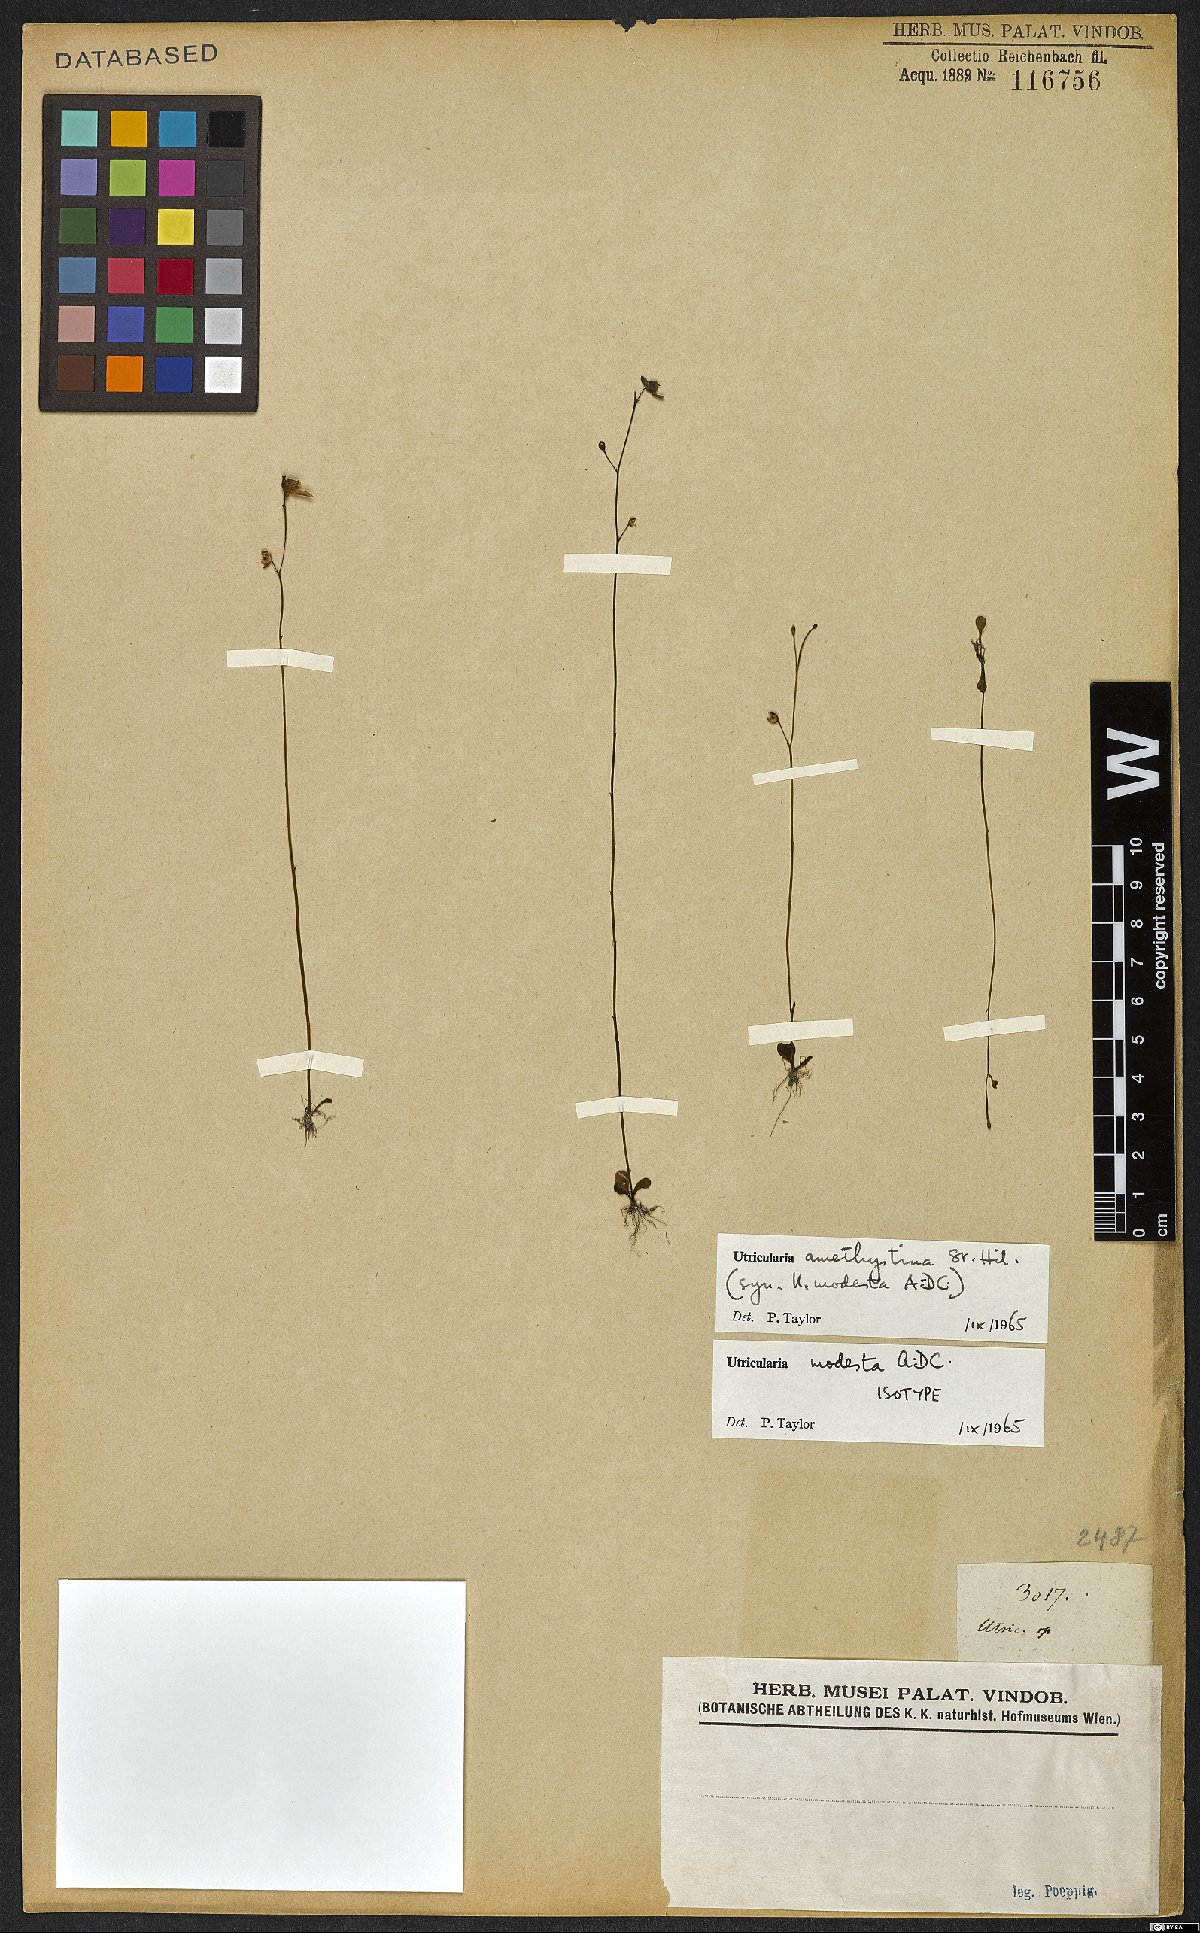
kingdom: Plantae
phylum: Tracheophyta
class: Magnoliopsida
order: Lamiales
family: Lentibulariaceae
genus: Utricularia
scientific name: Utricularia amethystina
